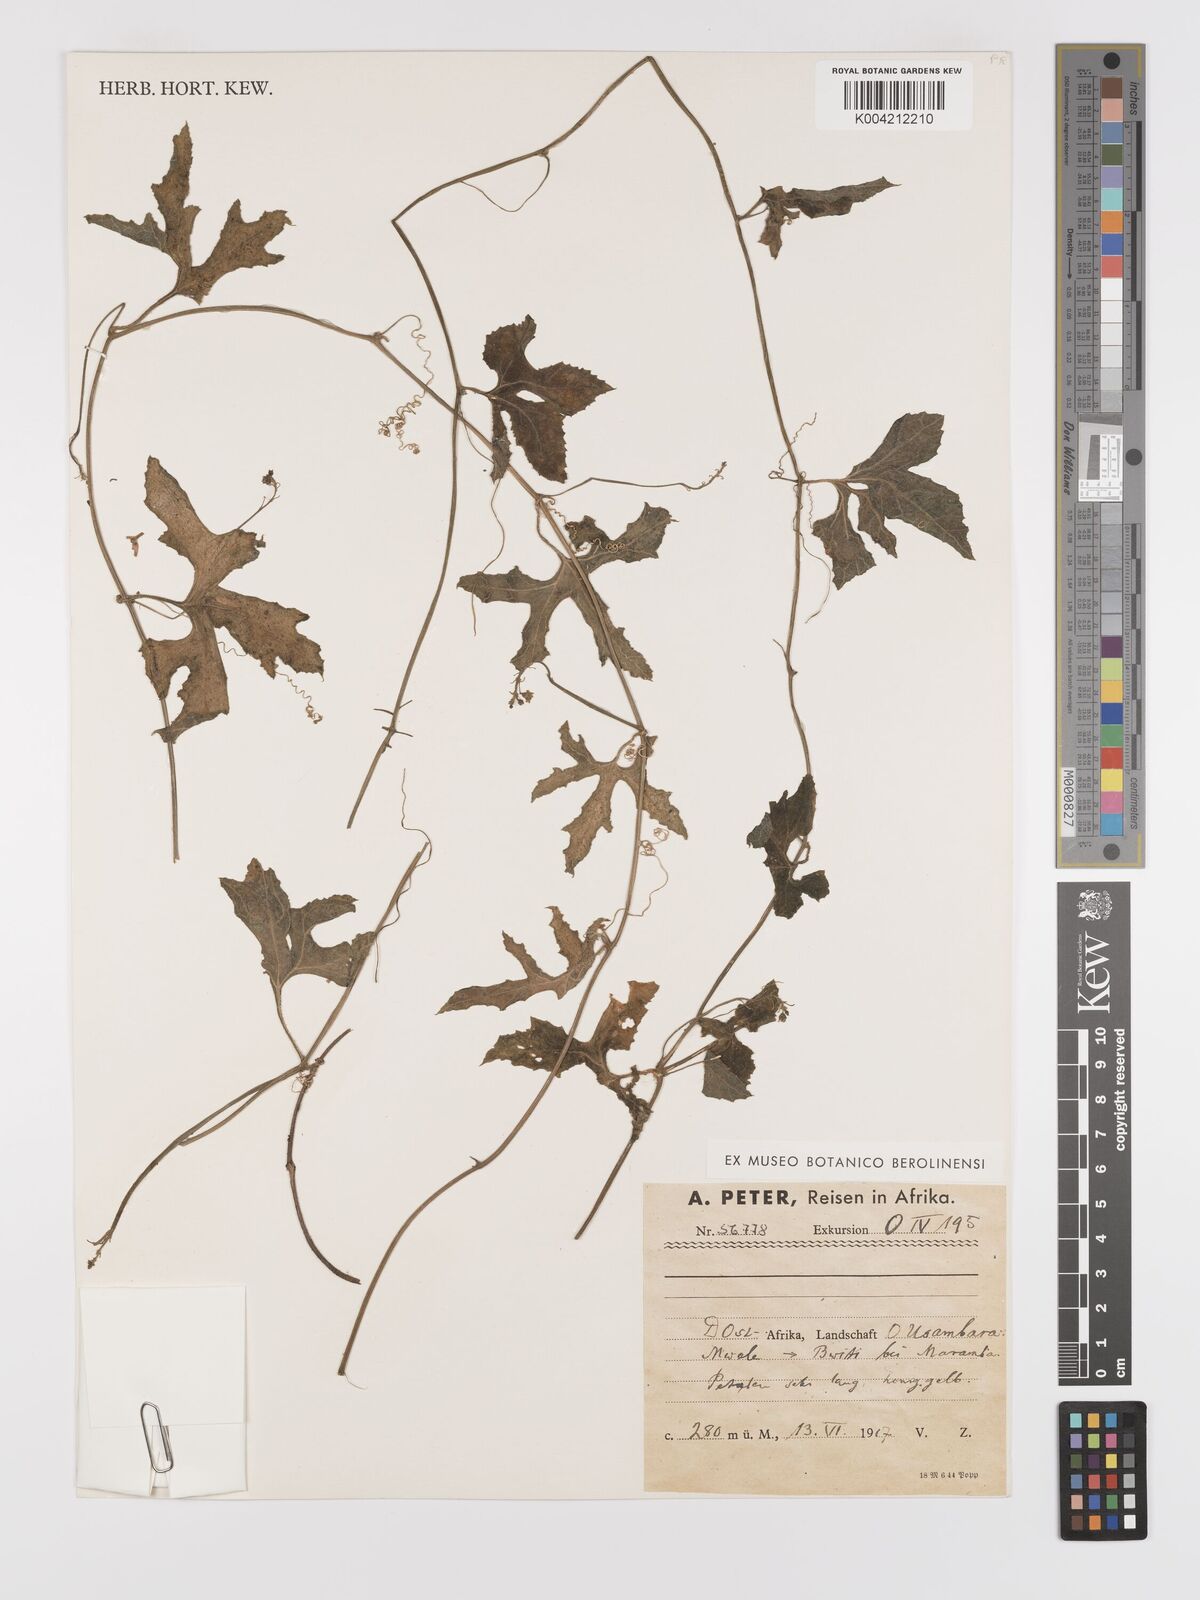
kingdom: Plantae
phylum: Tracheophyta
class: Magnoliopsida
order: Cucurbitales
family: Cucurbitaceae
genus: Kedrostis
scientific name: Kedrostis abdallae
